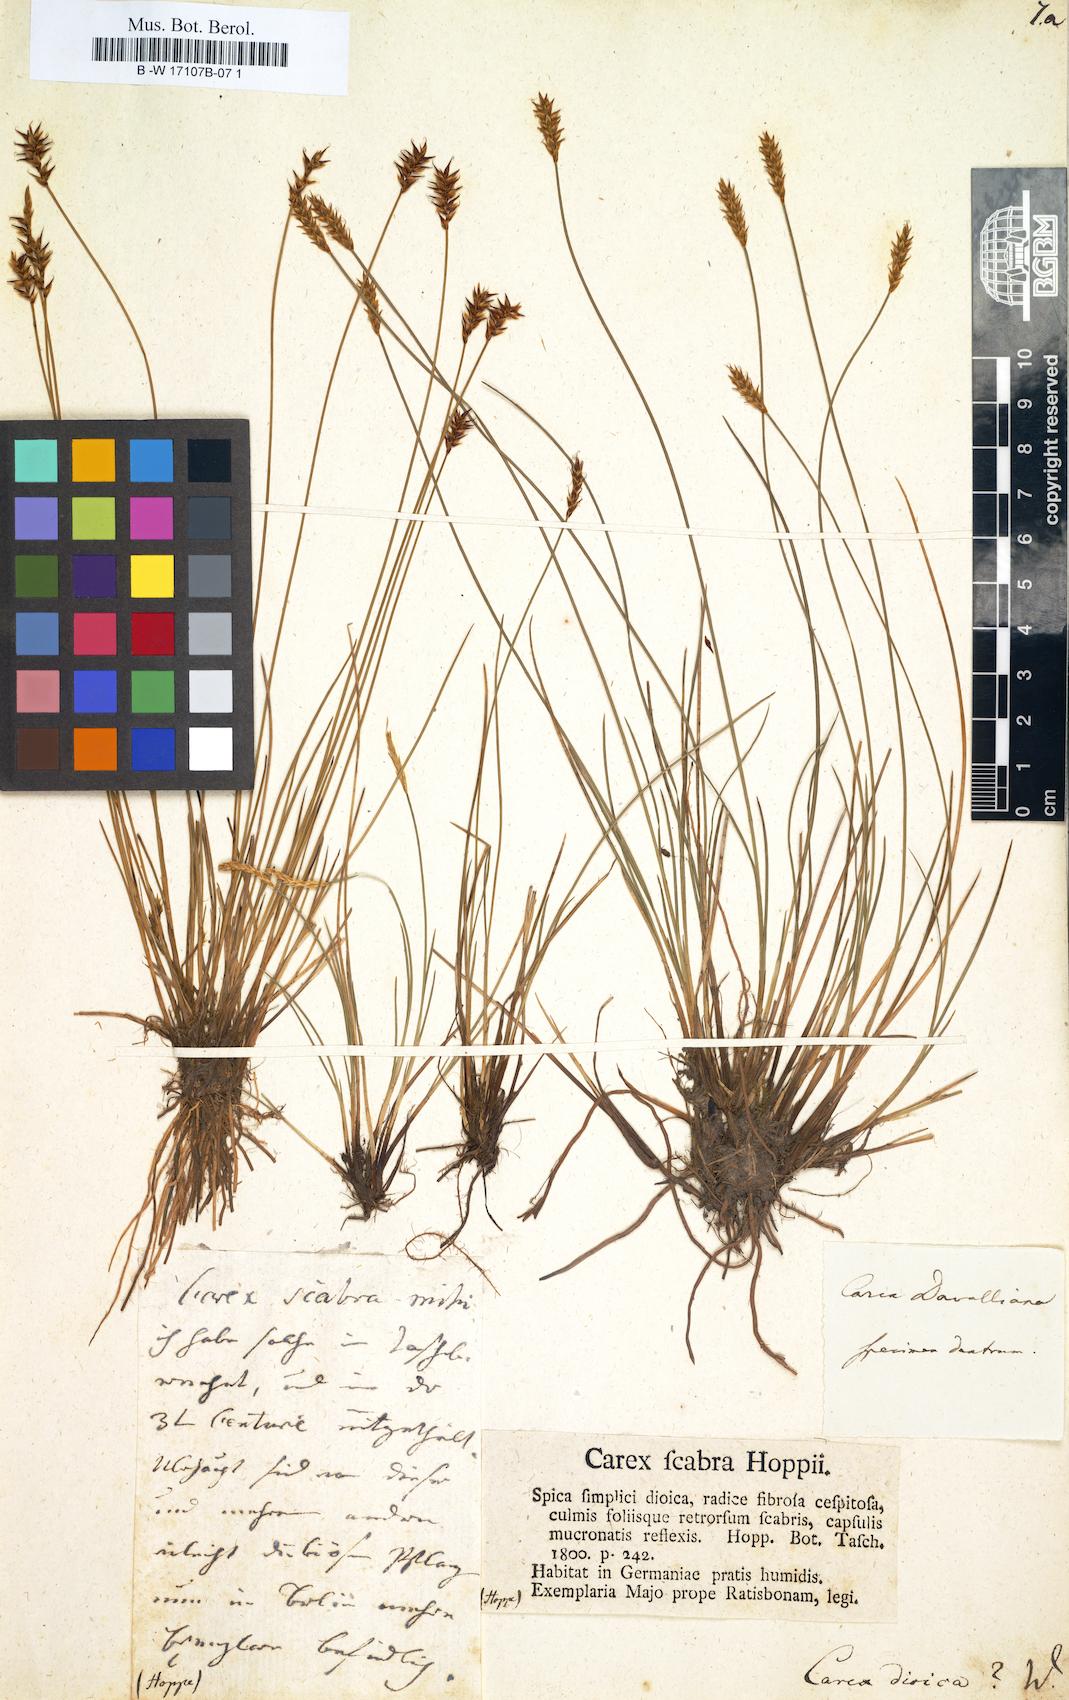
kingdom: Plantae
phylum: Tracheophyta
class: Liliopsida
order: Poales
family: Cyperaceae
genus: Carex
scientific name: Carex dioica
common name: Dioecious sedge
